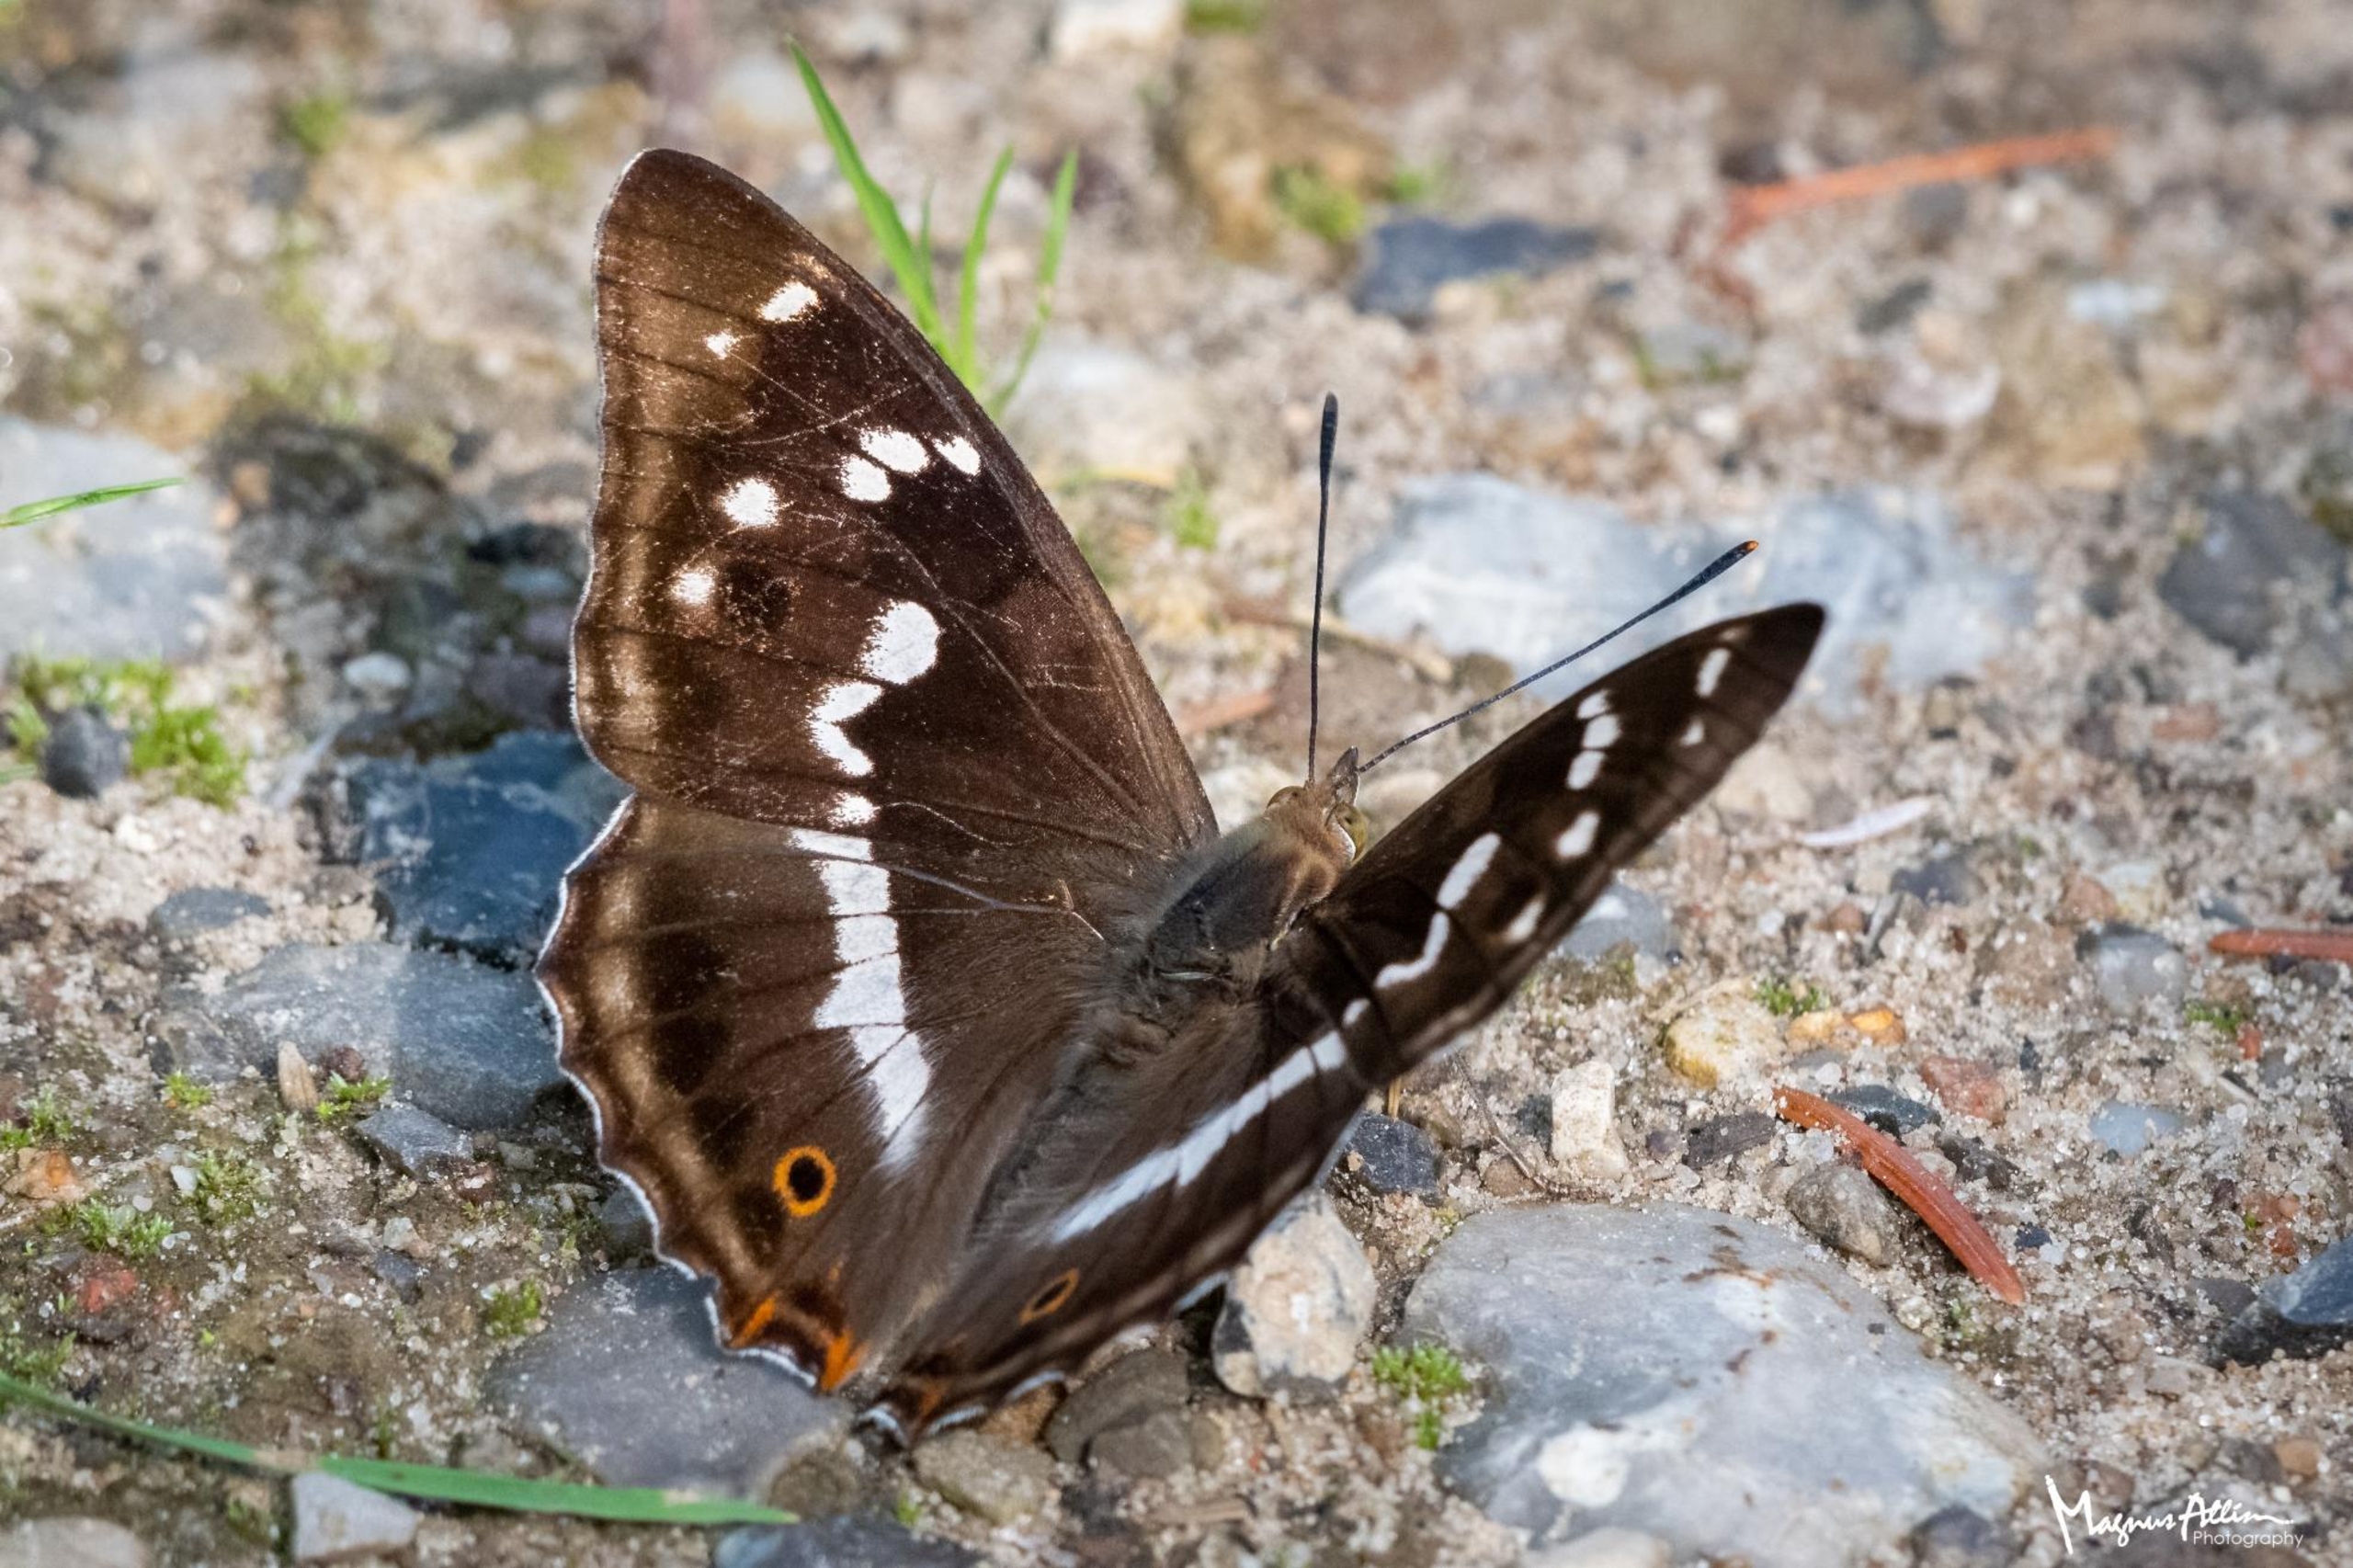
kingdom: Animalia
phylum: Arthropoda
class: Insecta
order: Lepidoptera
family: Nymphalidae
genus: Apatura
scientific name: Apatura iris
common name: Iris
